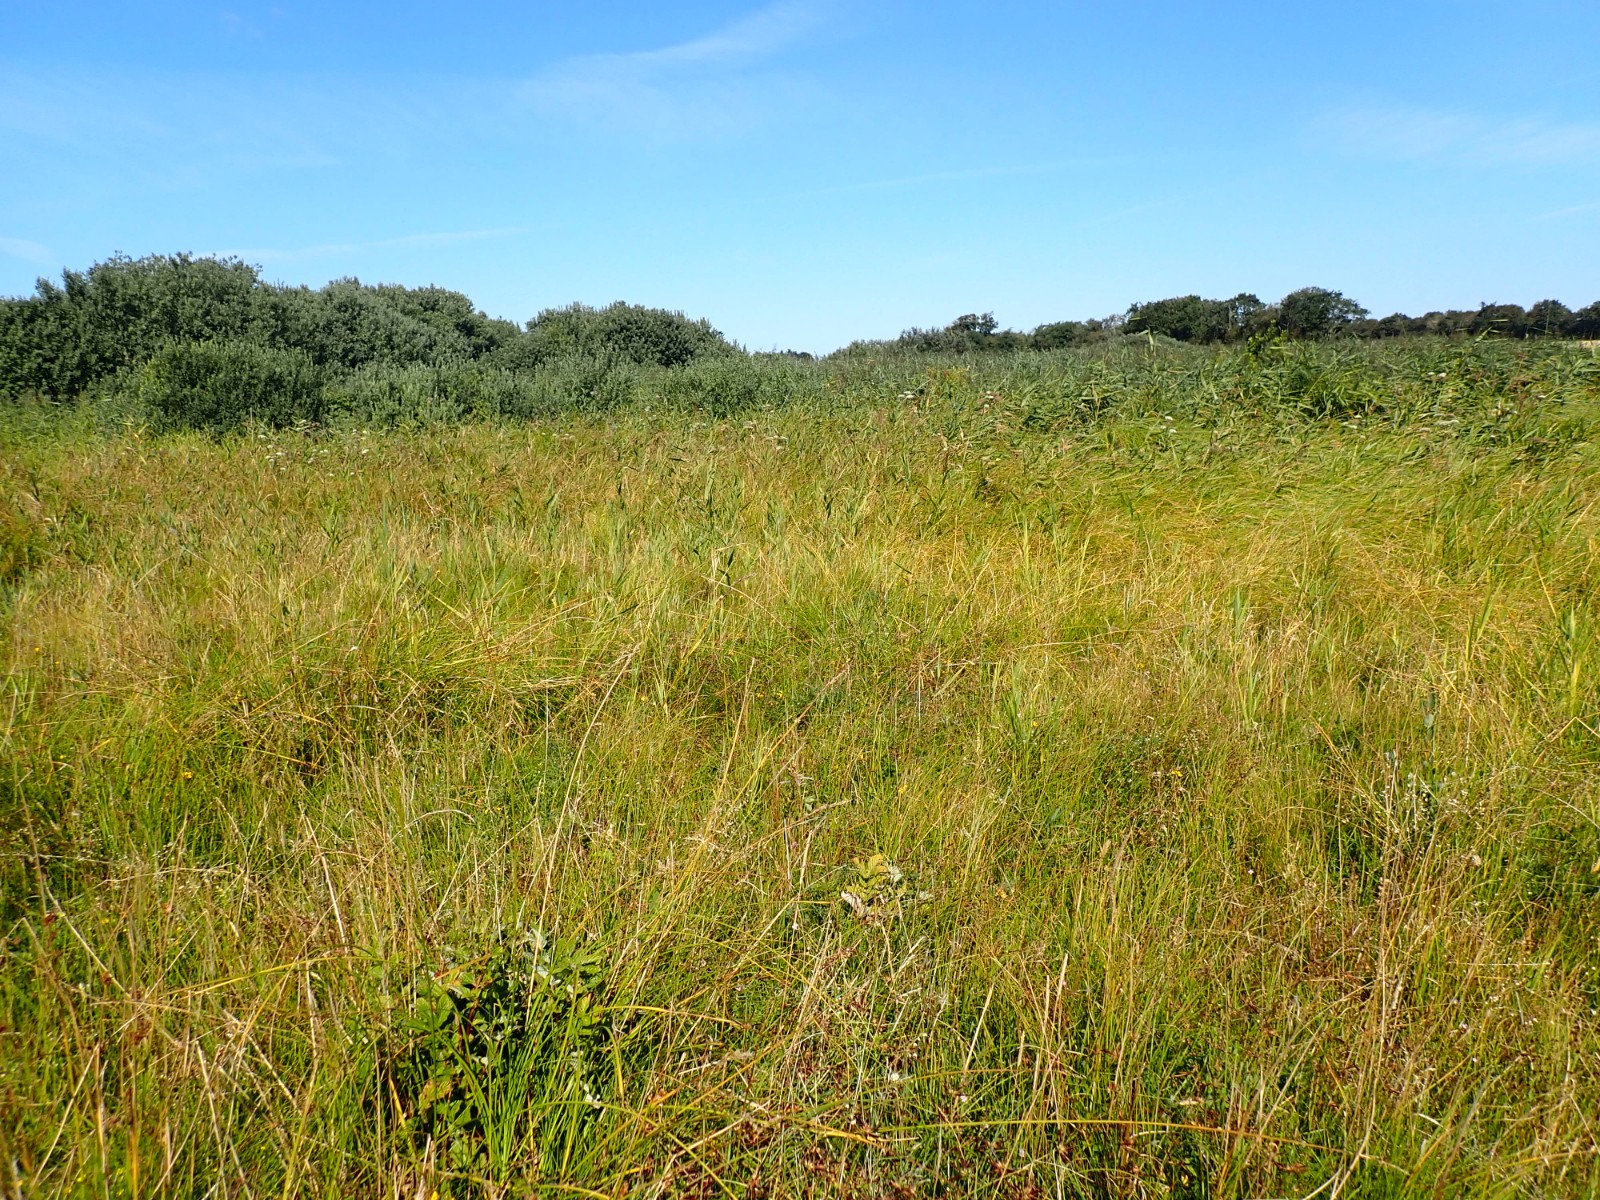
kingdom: Fungi
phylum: Basidiomycota
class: Agaricomycetes
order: Agaricales
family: Hygrophoraceae
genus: Hygrocybe
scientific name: Hygrocybe conica
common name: kegle-vokshat
